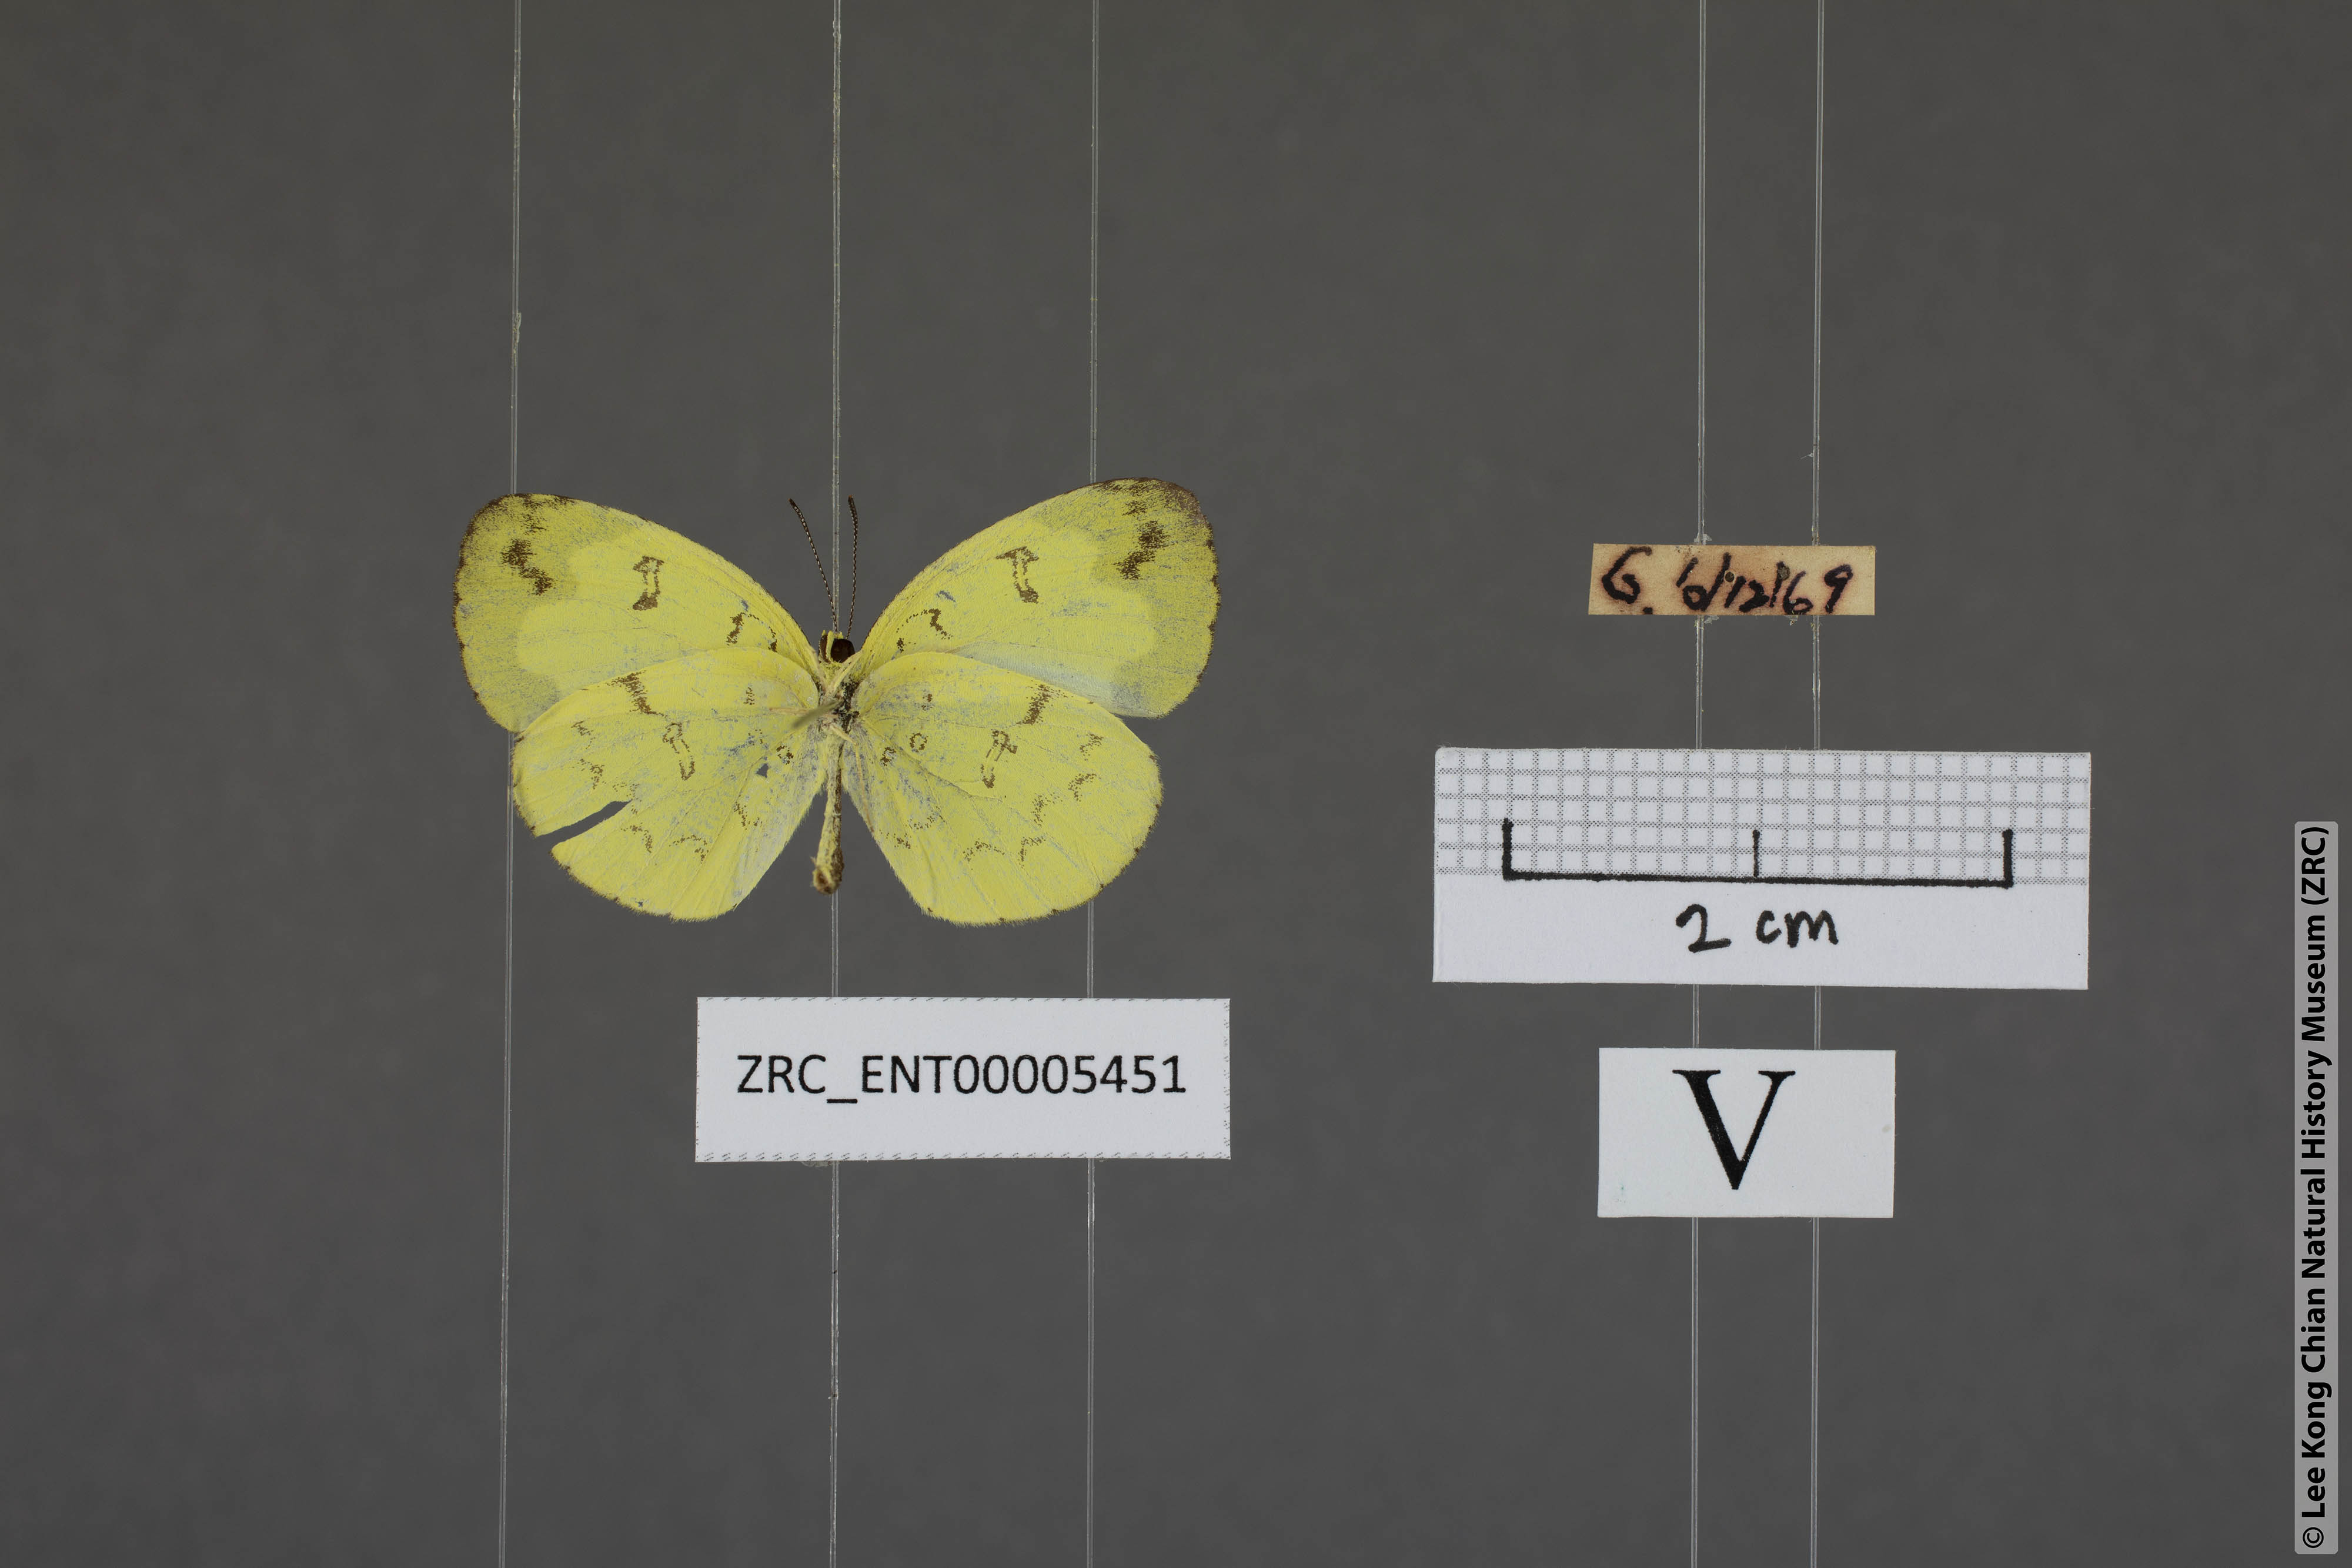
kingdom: Animalia
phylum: Arthropoda
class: Insecta
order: Lepidoptera
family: Pieridae
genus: Eurema
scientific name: Eurema lacteola
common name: Scarce grass yellow
